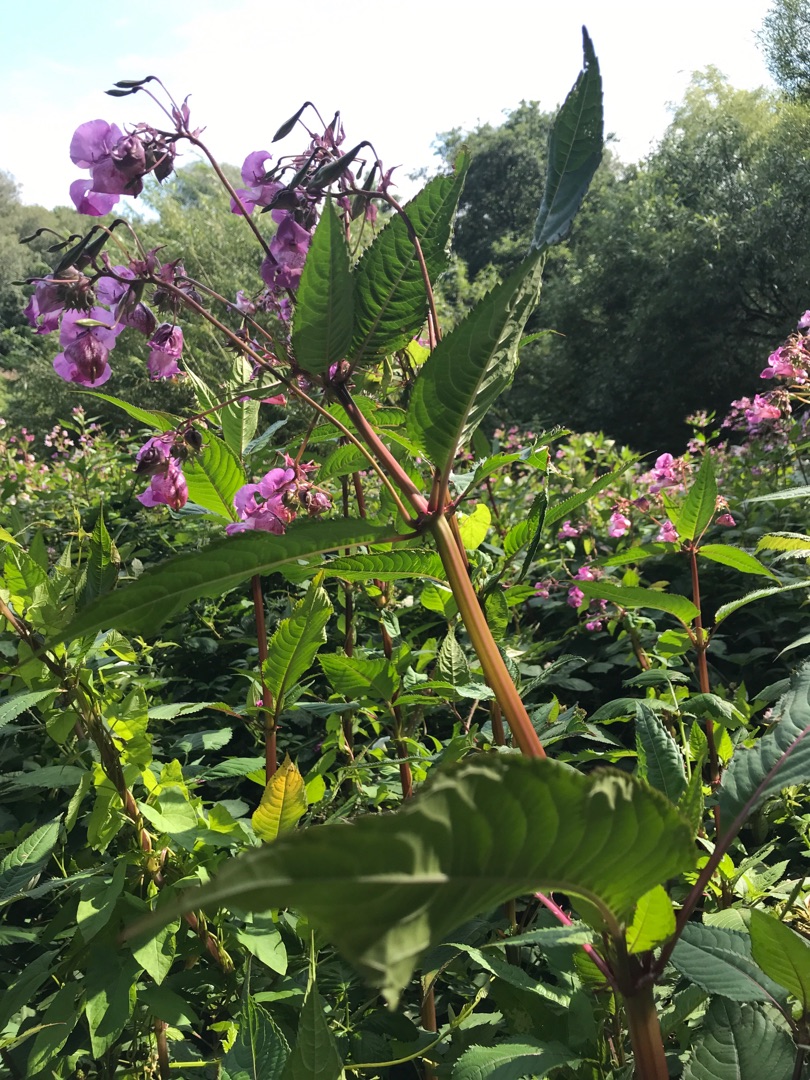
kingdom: Plantae
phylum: Tracheophyta
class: Magnoliopsida
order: Ericales
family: Balsaminaceae
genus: Impatiens
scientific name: Impatiens glandulifera
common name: Kæmpe-balsamin
